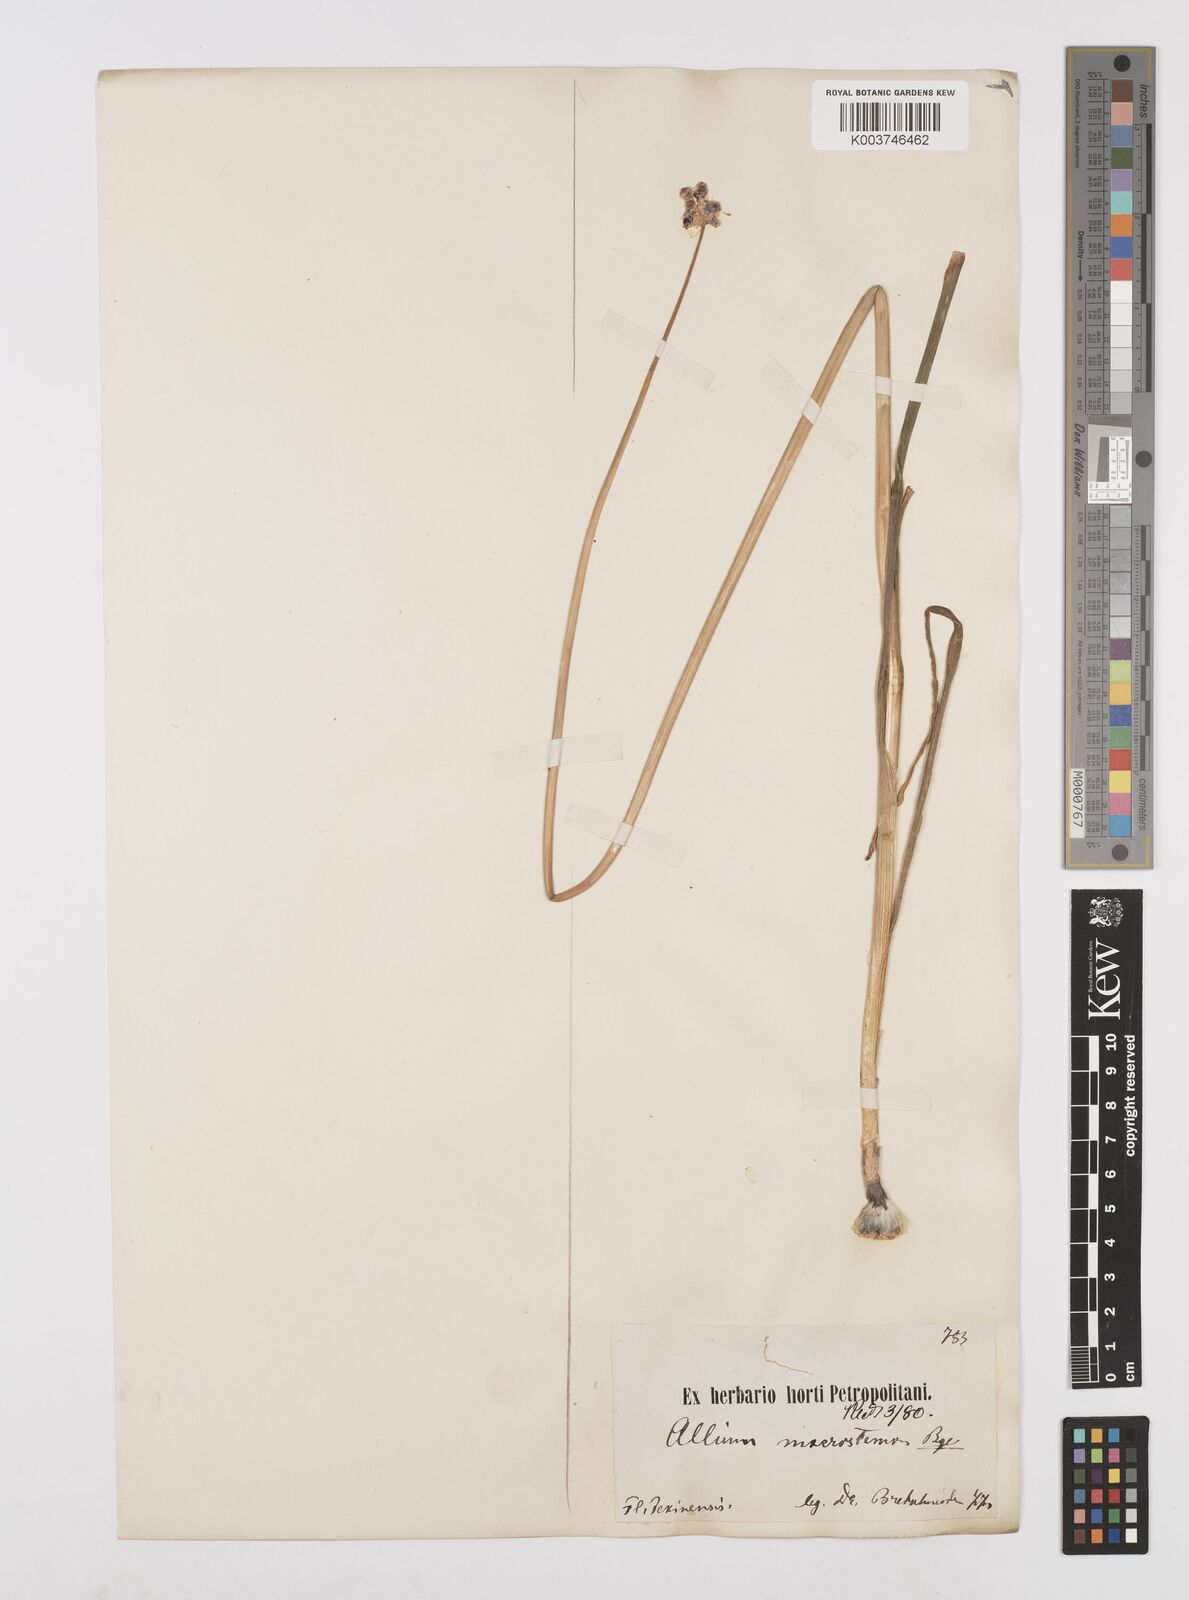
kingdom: Plantae
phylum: Tracheophyta
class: Liliopsida
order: Asparagales
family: Amaryllidaceae
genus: Allium
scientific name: Allium macrostemon
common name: Chinese garlic
